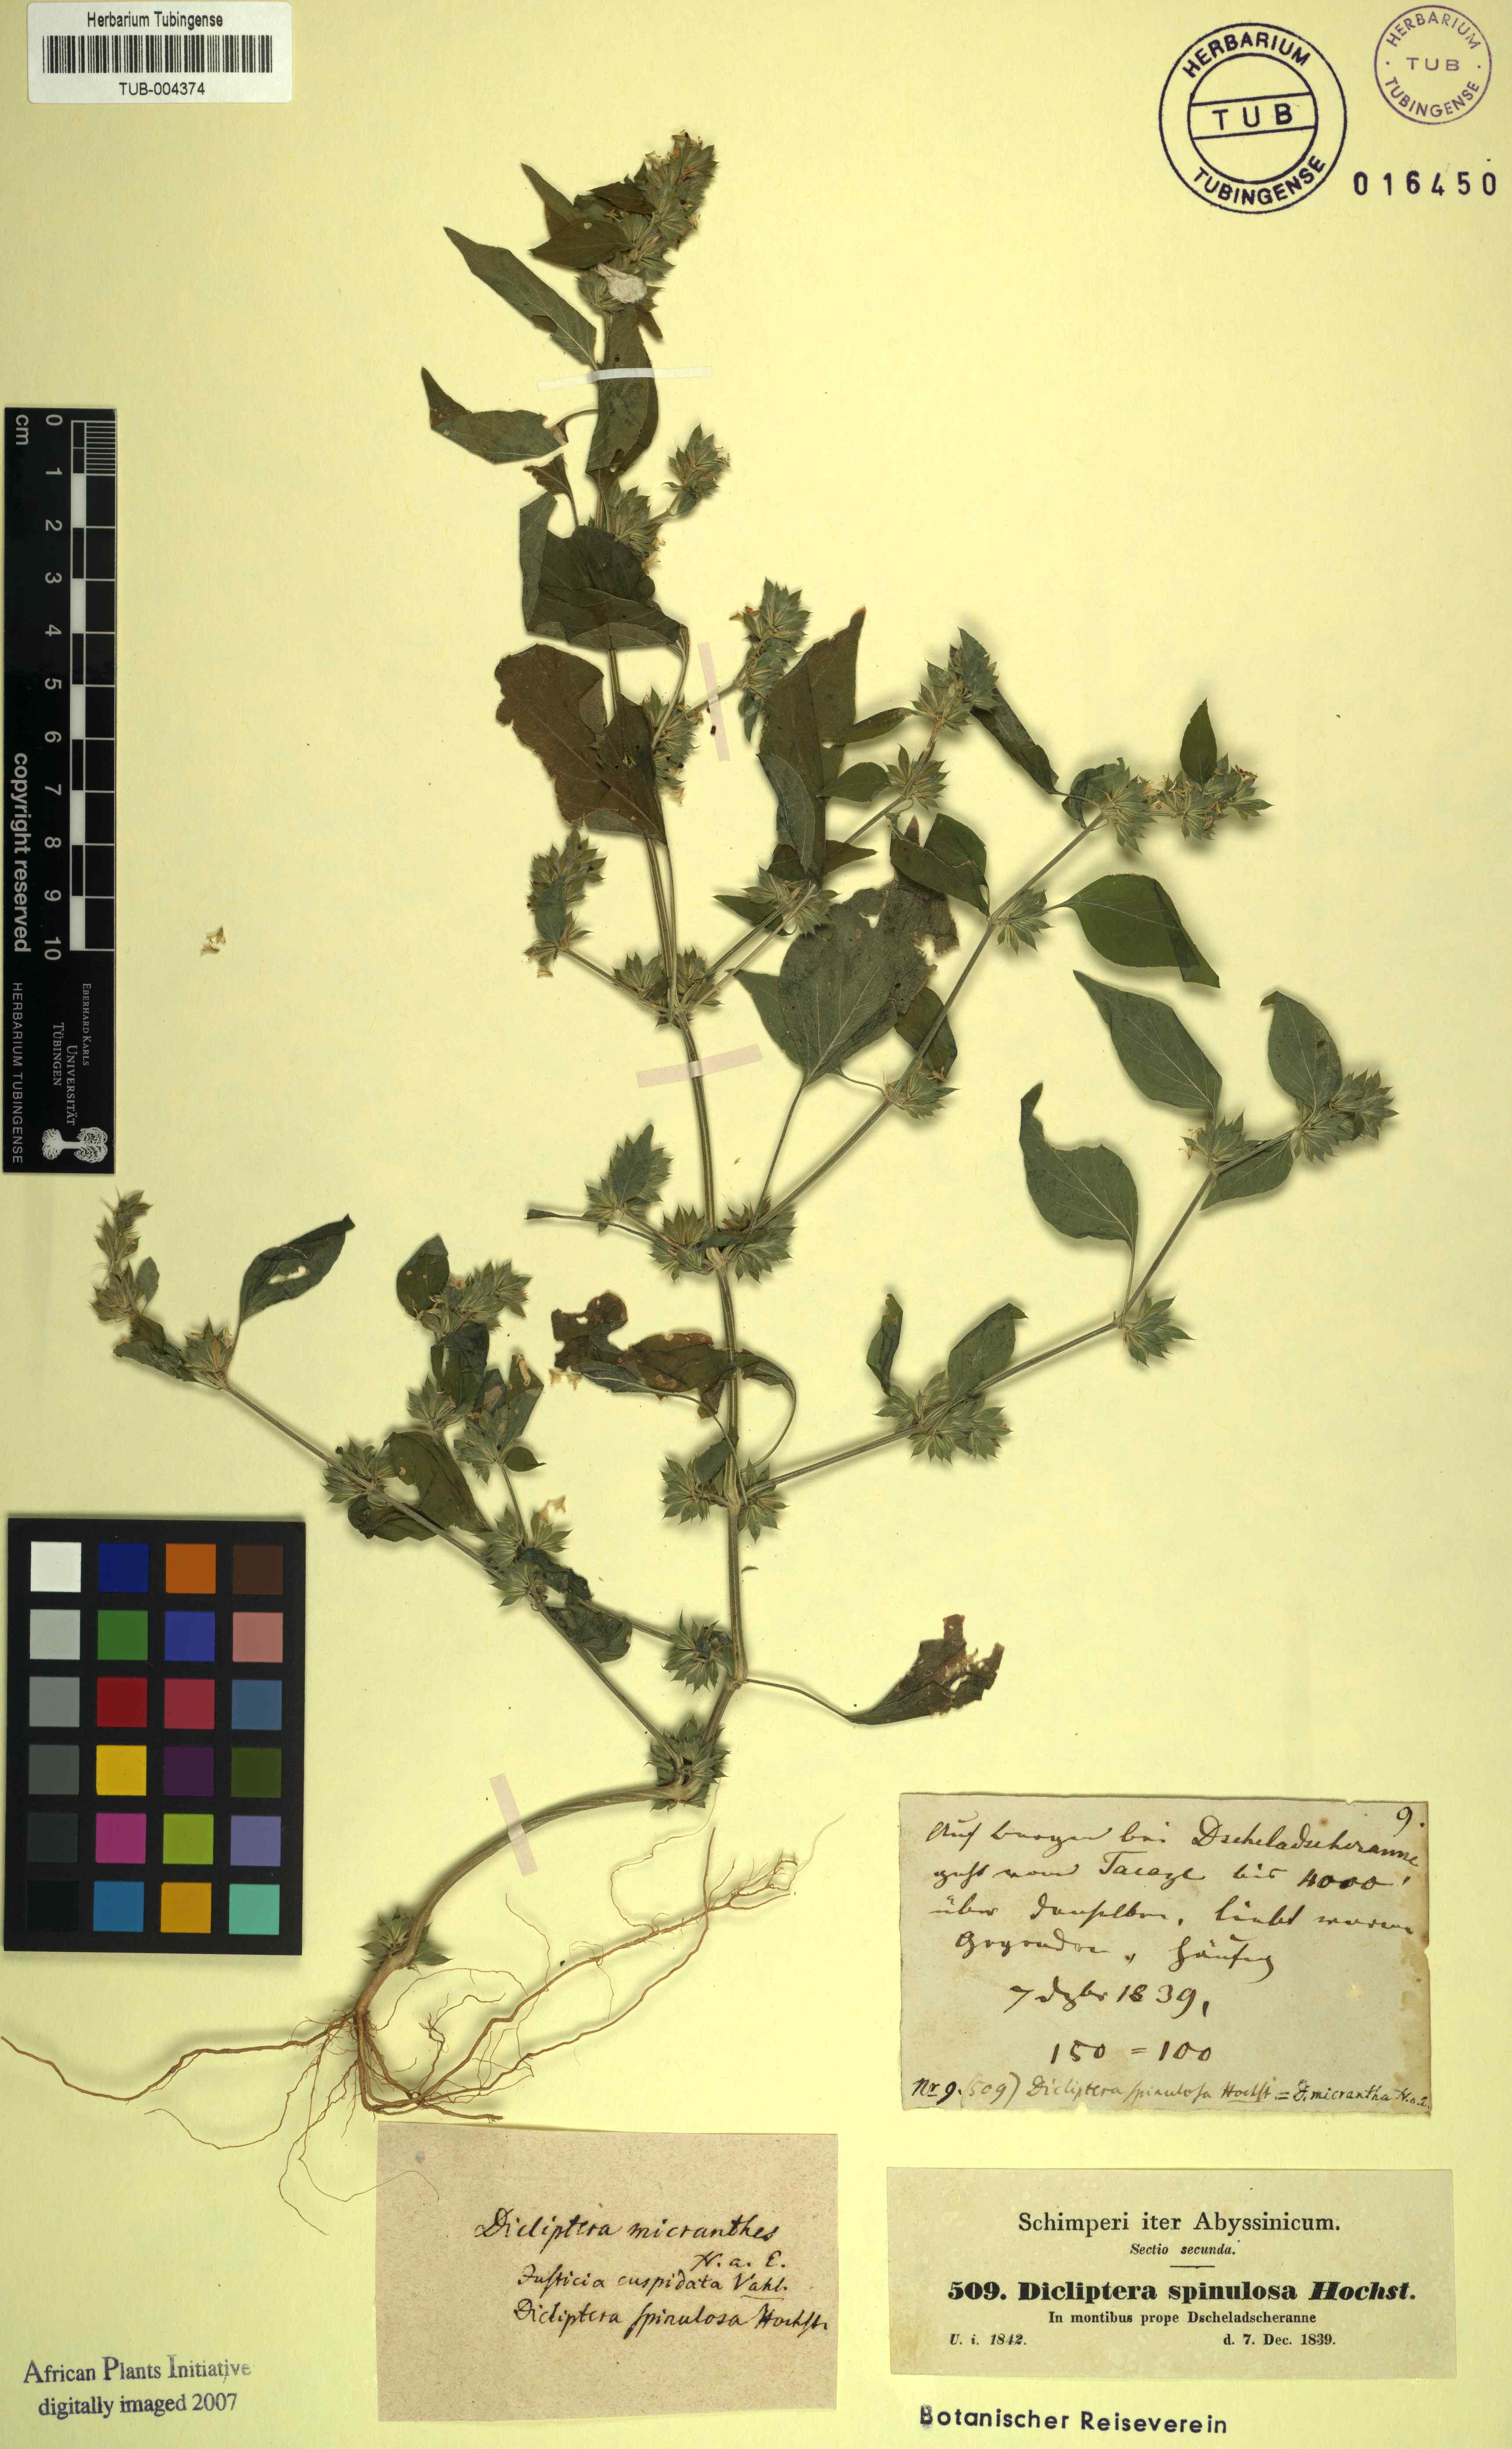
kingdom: Plantae
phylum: Tracheophyta
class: Magnoliopsida
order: Lamiales
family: Acanthaceae
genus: Dicliptera
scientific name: Dicliptera verticillata
